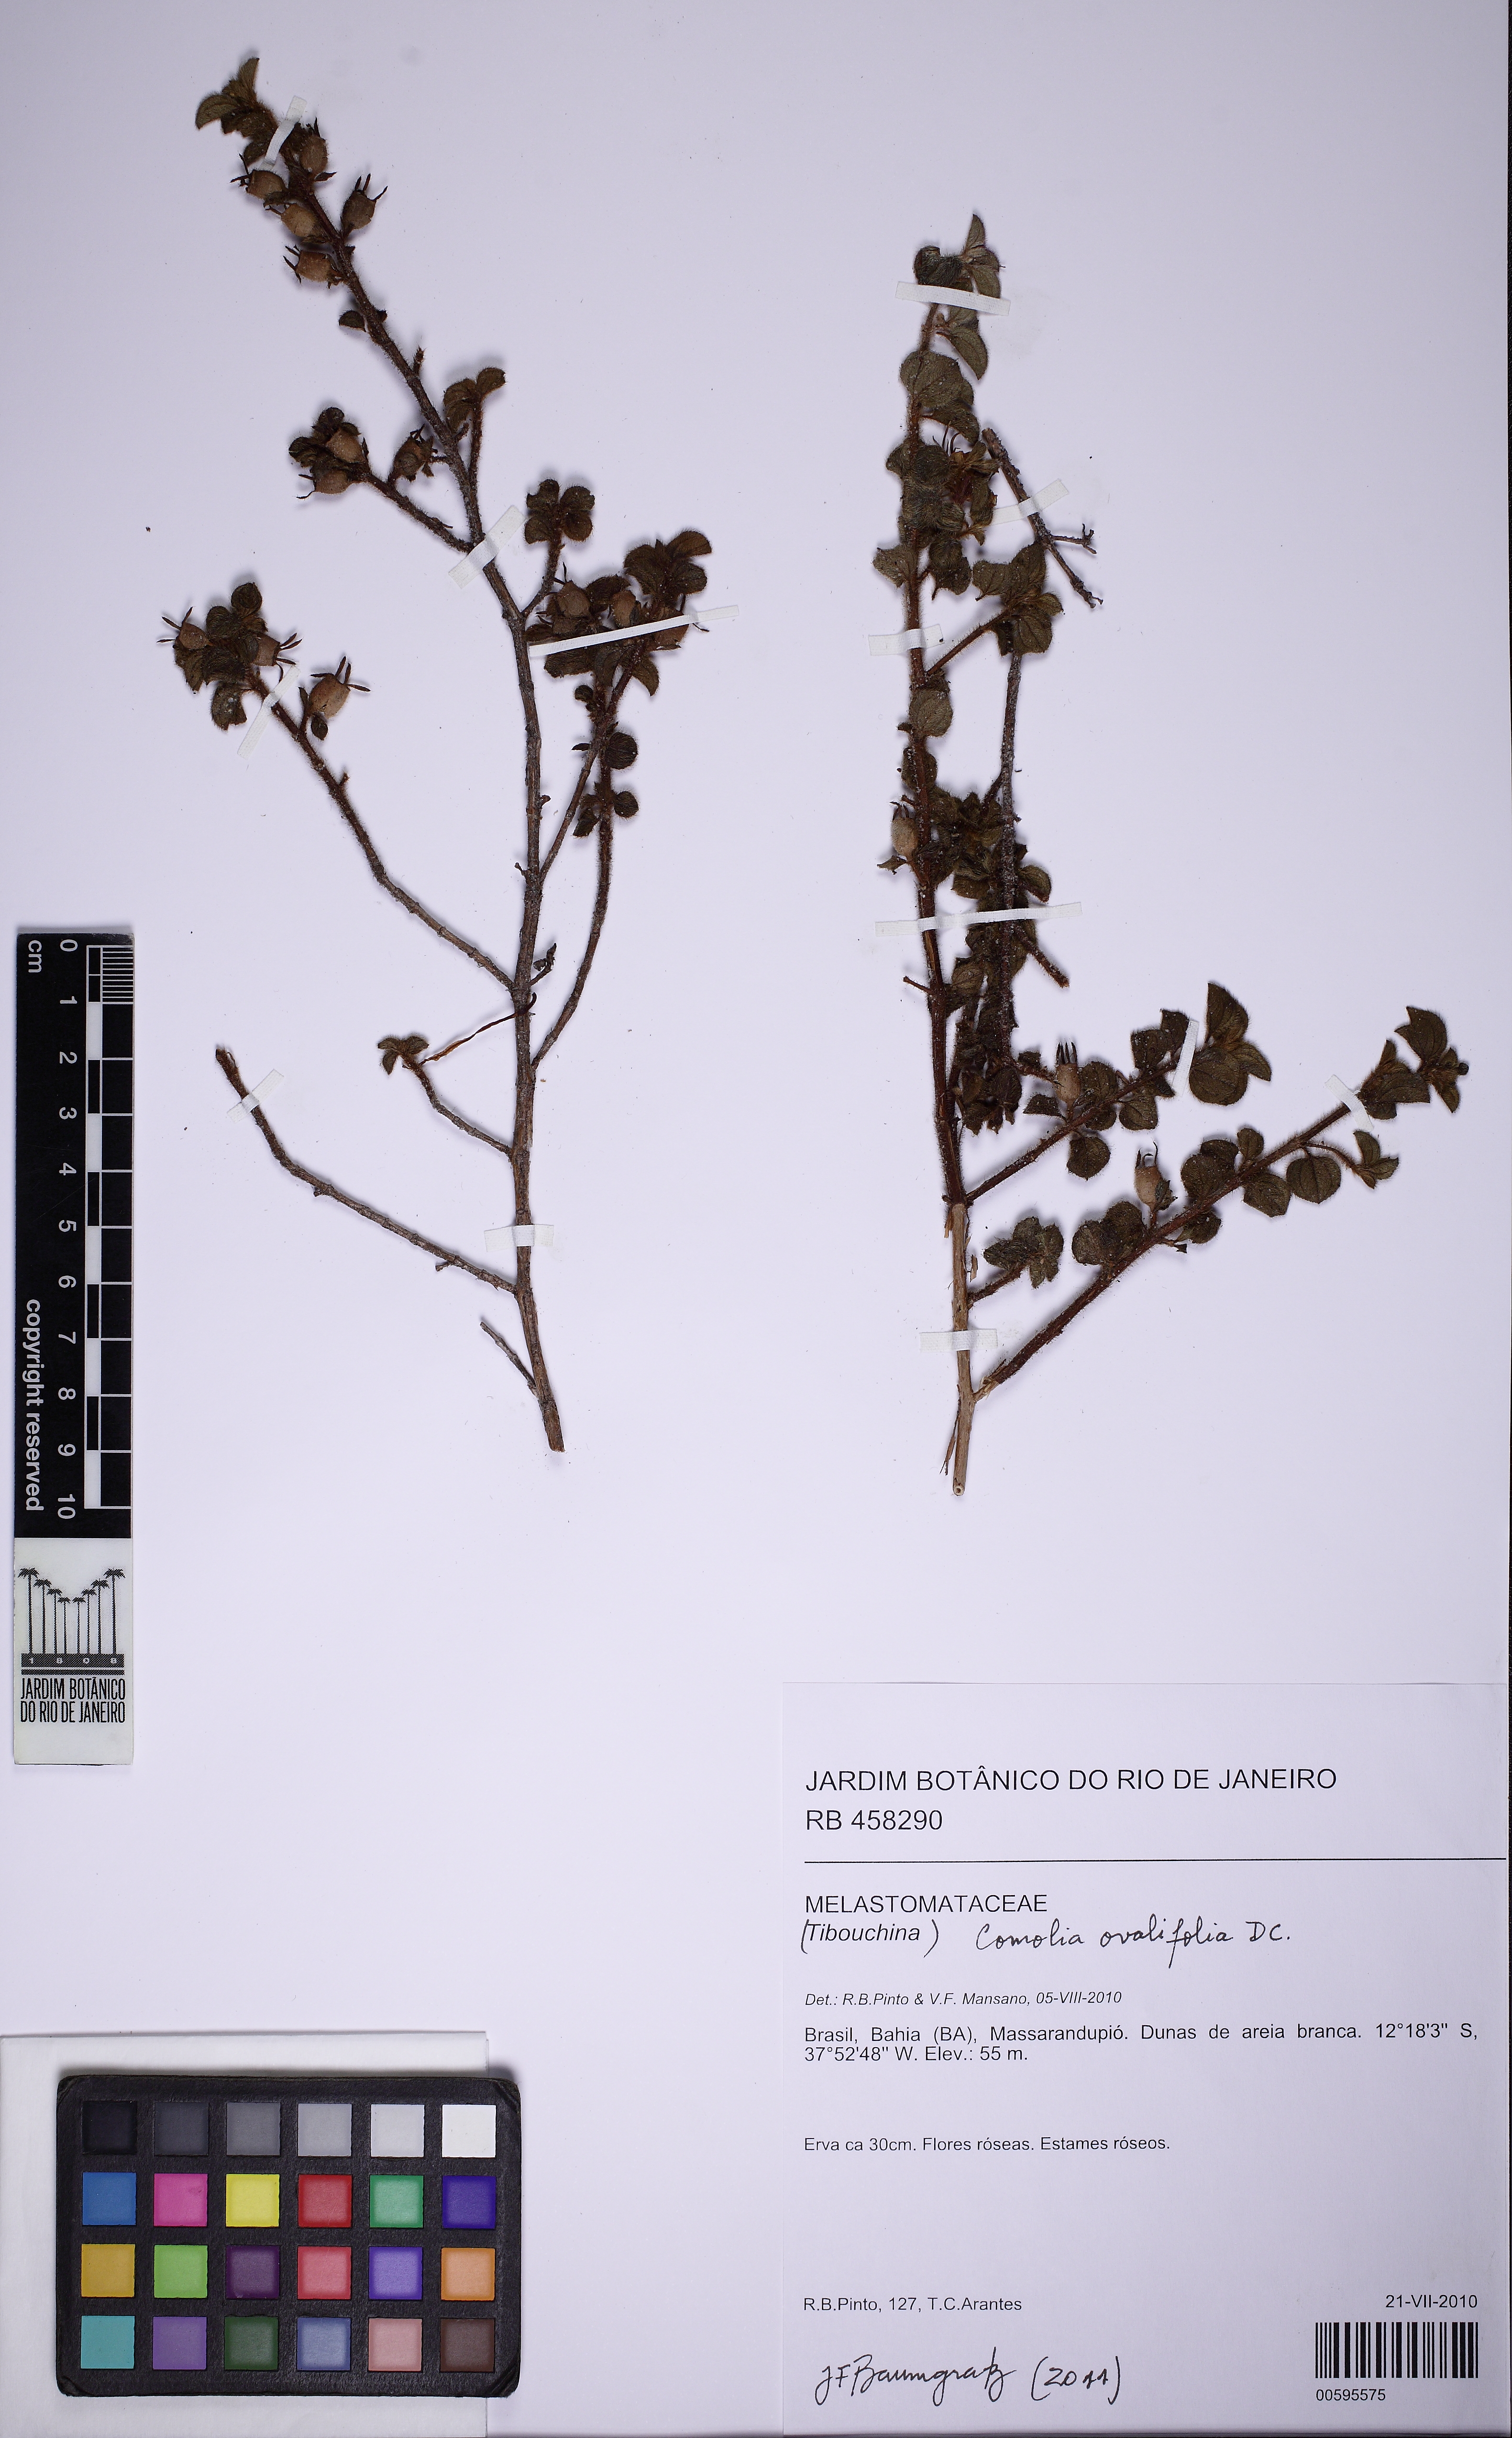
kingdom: Plantae
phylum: Tracheophyta
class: Magnoliopsida
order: Myrtales
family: Melastomataceae
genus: Comolia
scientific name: Comolia ovalifolia
